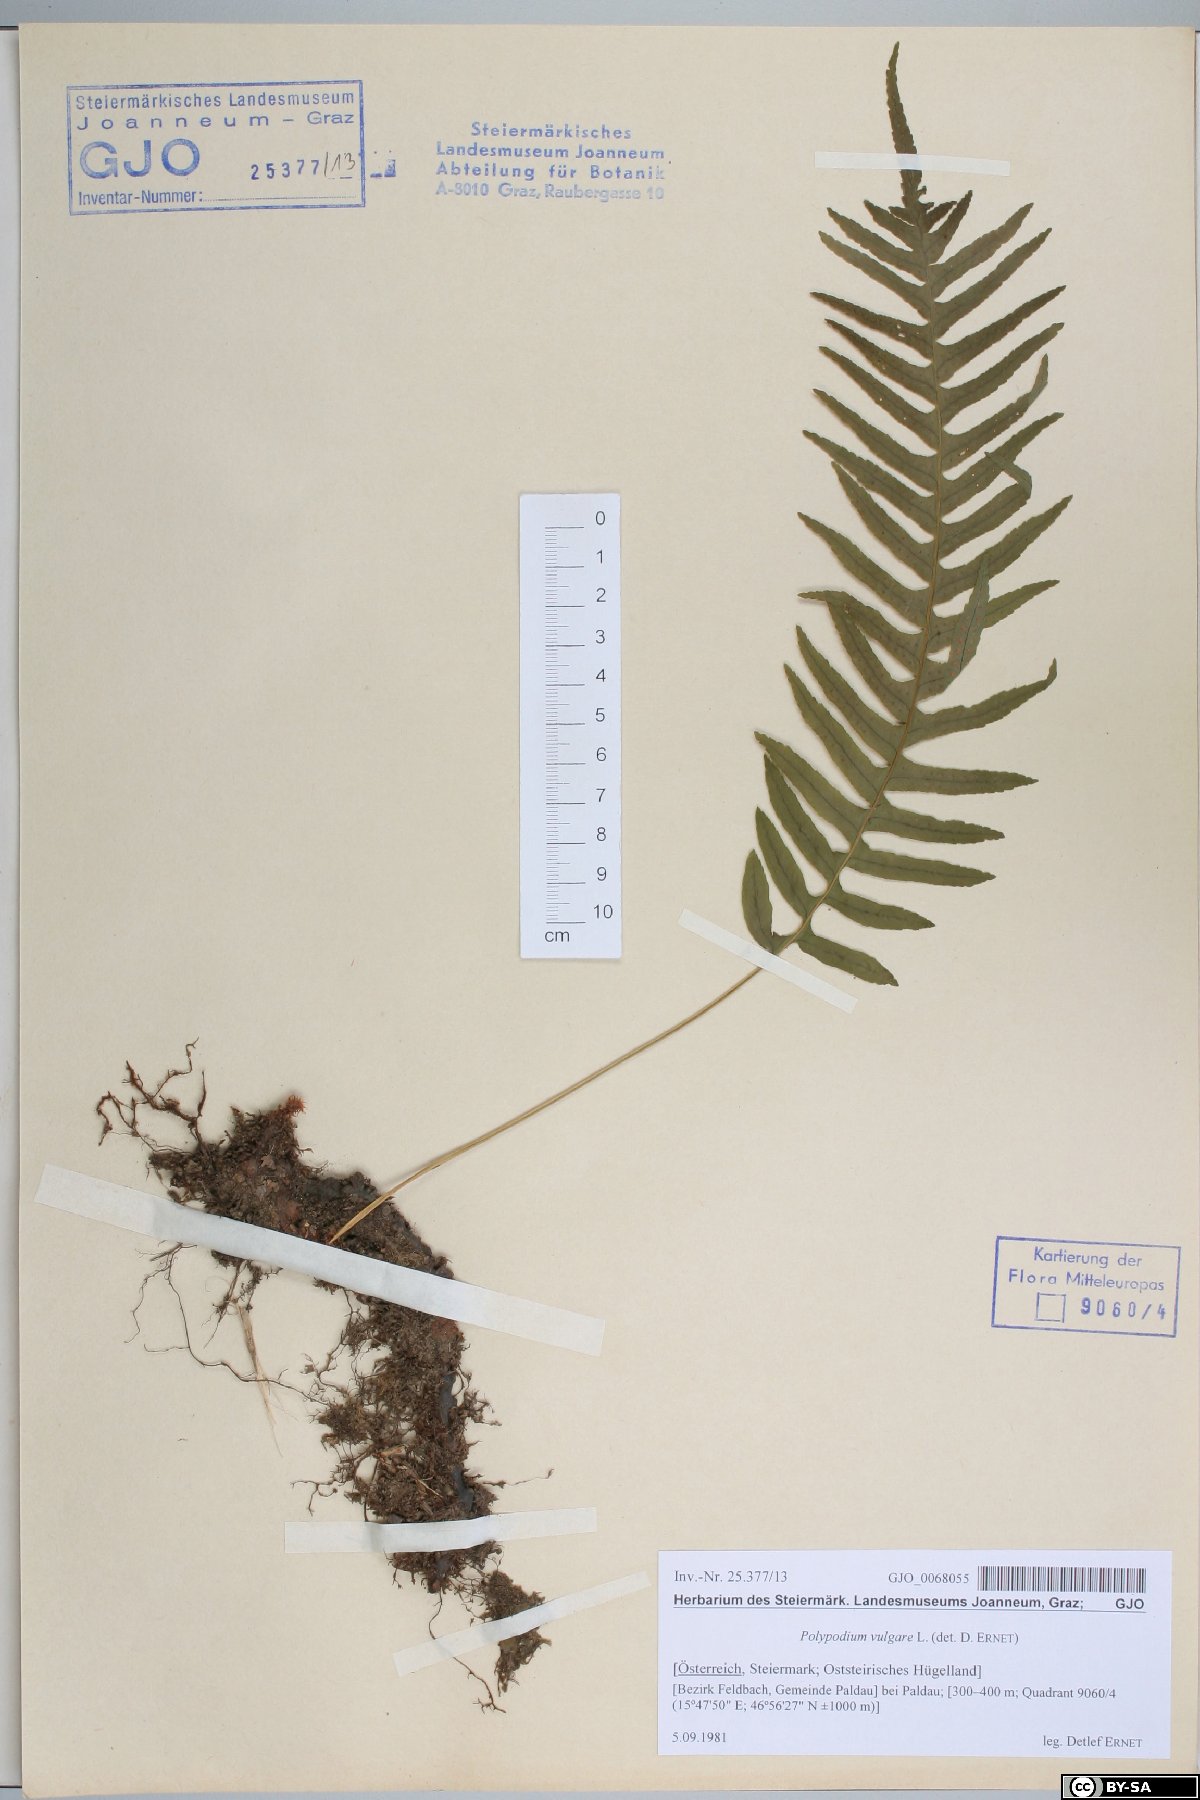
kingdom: Plantae
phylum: Tracheophyta
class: Polypodiopsida
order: Polypodiales
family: Polypodiaceae
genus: Polypodium
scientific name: Polypodium vulgare
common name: Common polypody
